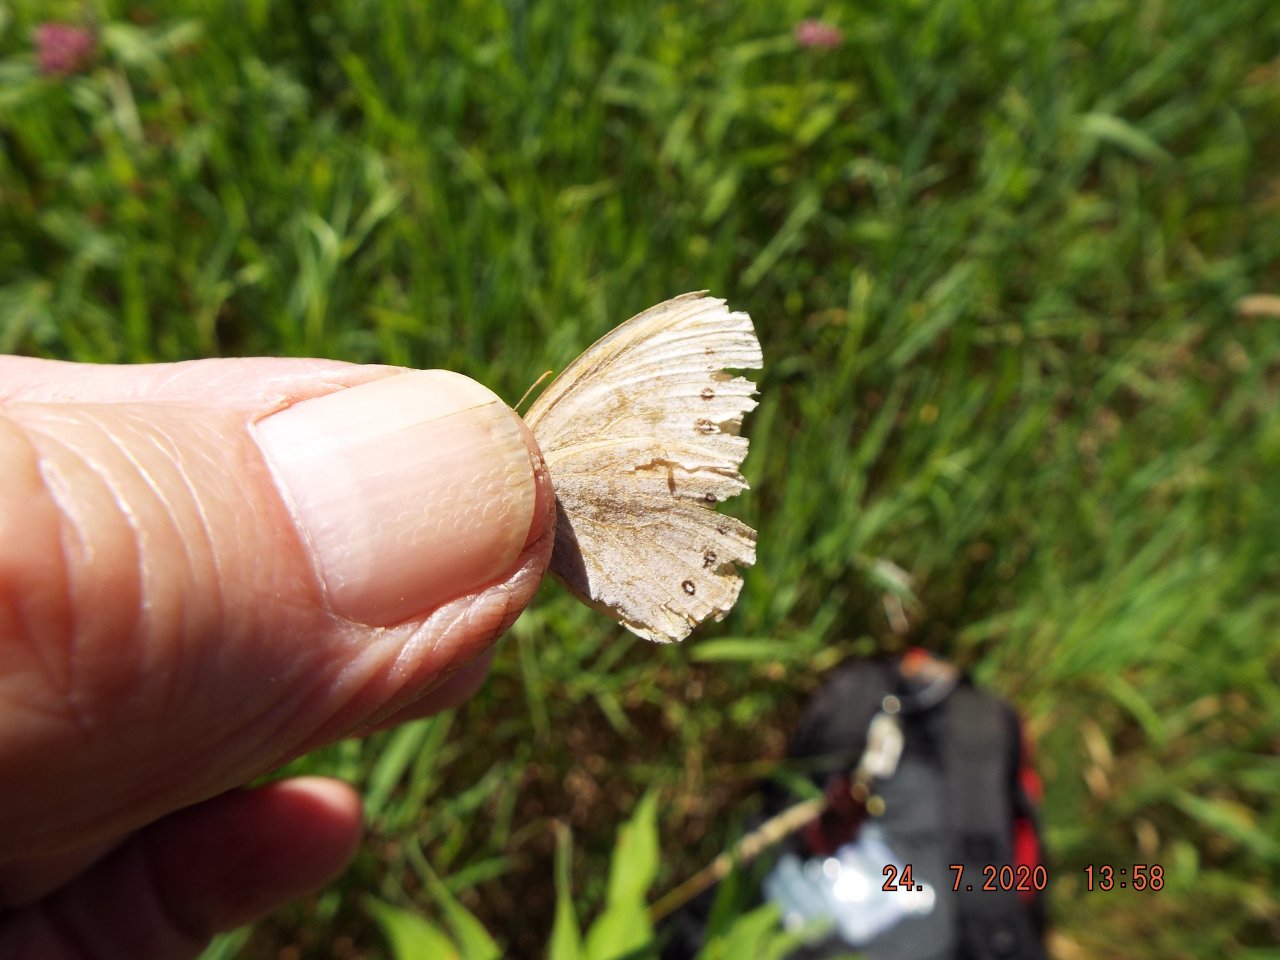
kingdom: Animalia
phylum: Arthropoda
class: Insecta
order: Lepidoptera
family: Nymphalidae
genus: Lethe
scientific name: Lethe
